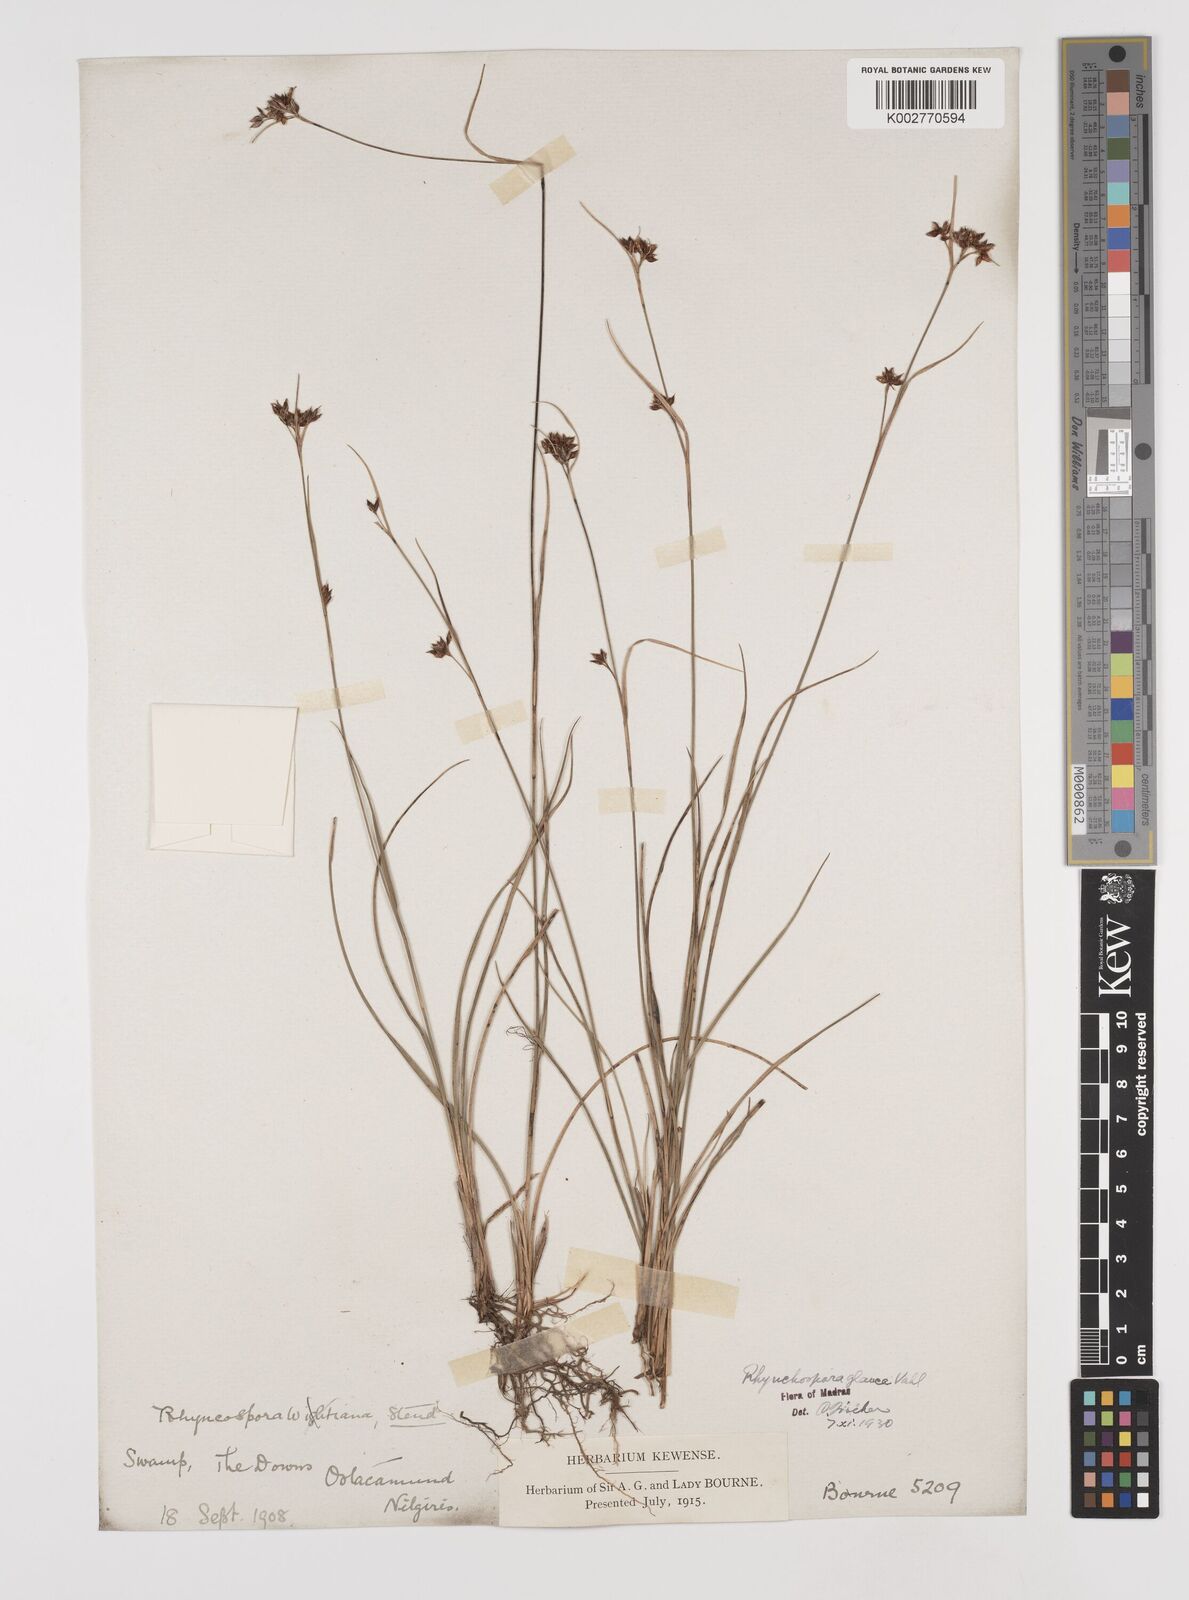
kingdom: Plantae
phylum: Tracheophyta
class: Liliopsida
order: Poales
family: Cyperaceae
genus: Rhynchospora
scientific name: Rhynchospora rugosa
